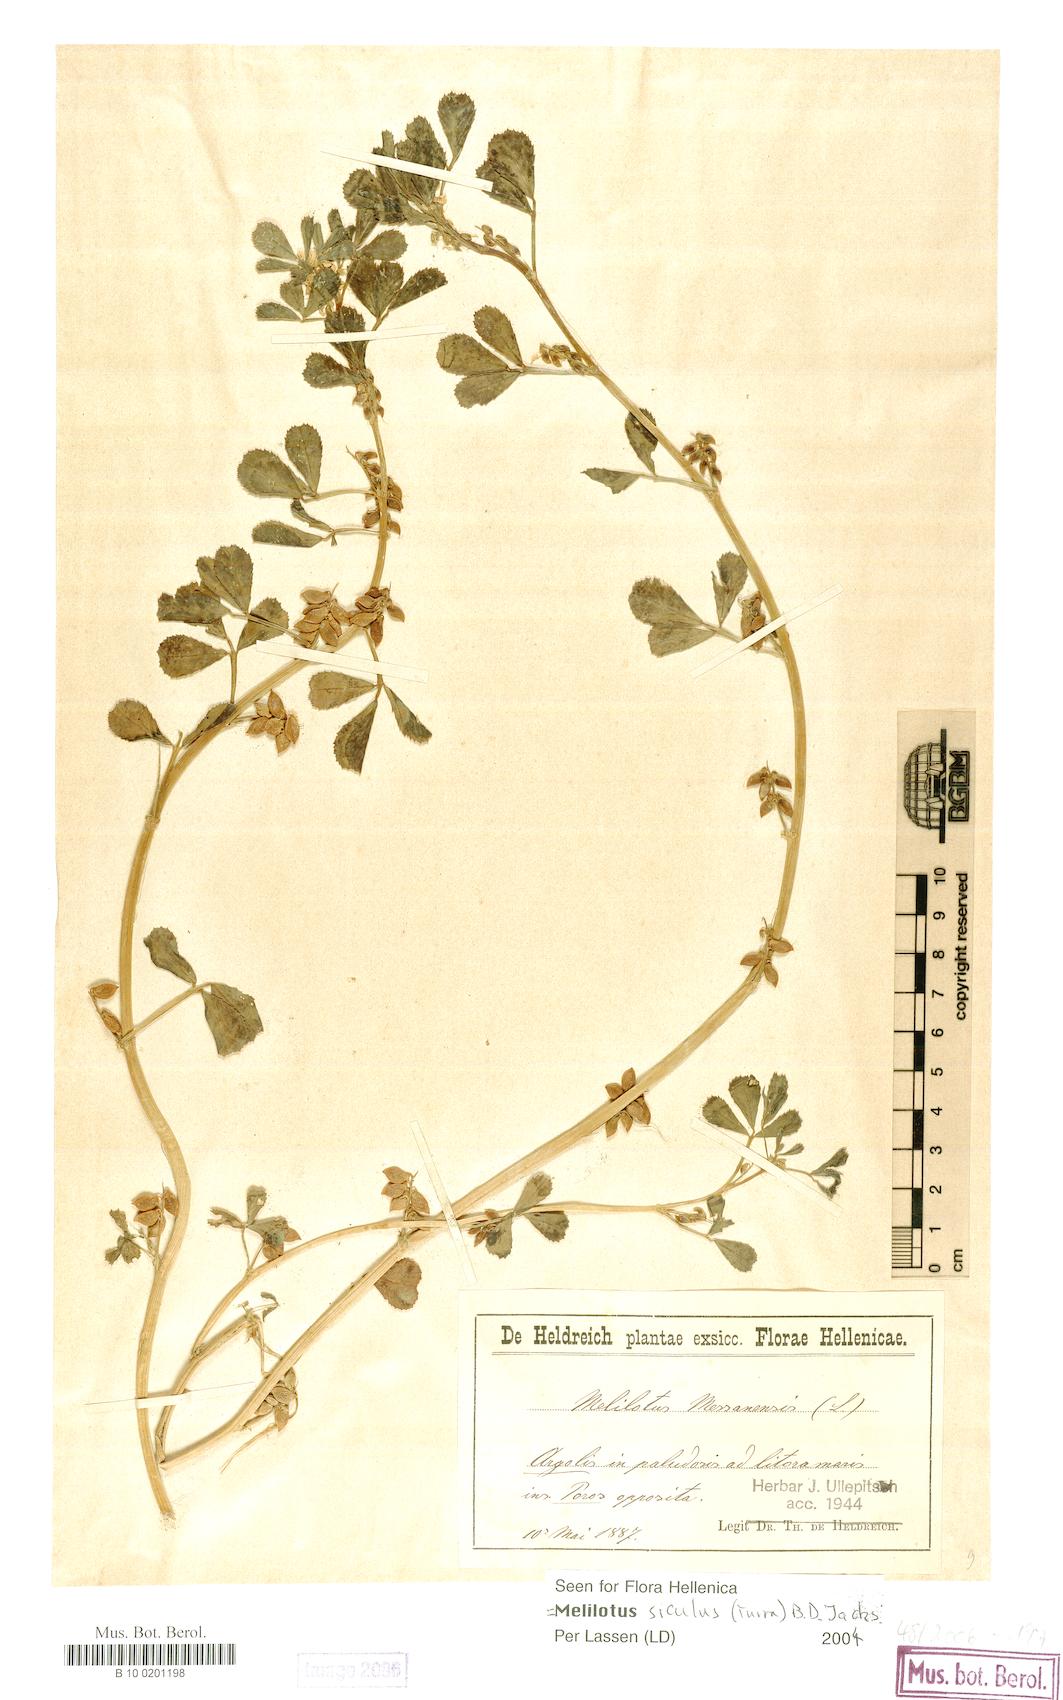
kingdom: Plantae
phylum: Tracheophyta
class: Magnoliopsida
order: Fabales
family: Fabaceae
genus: Melilotus
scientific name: Melilotus siculus
